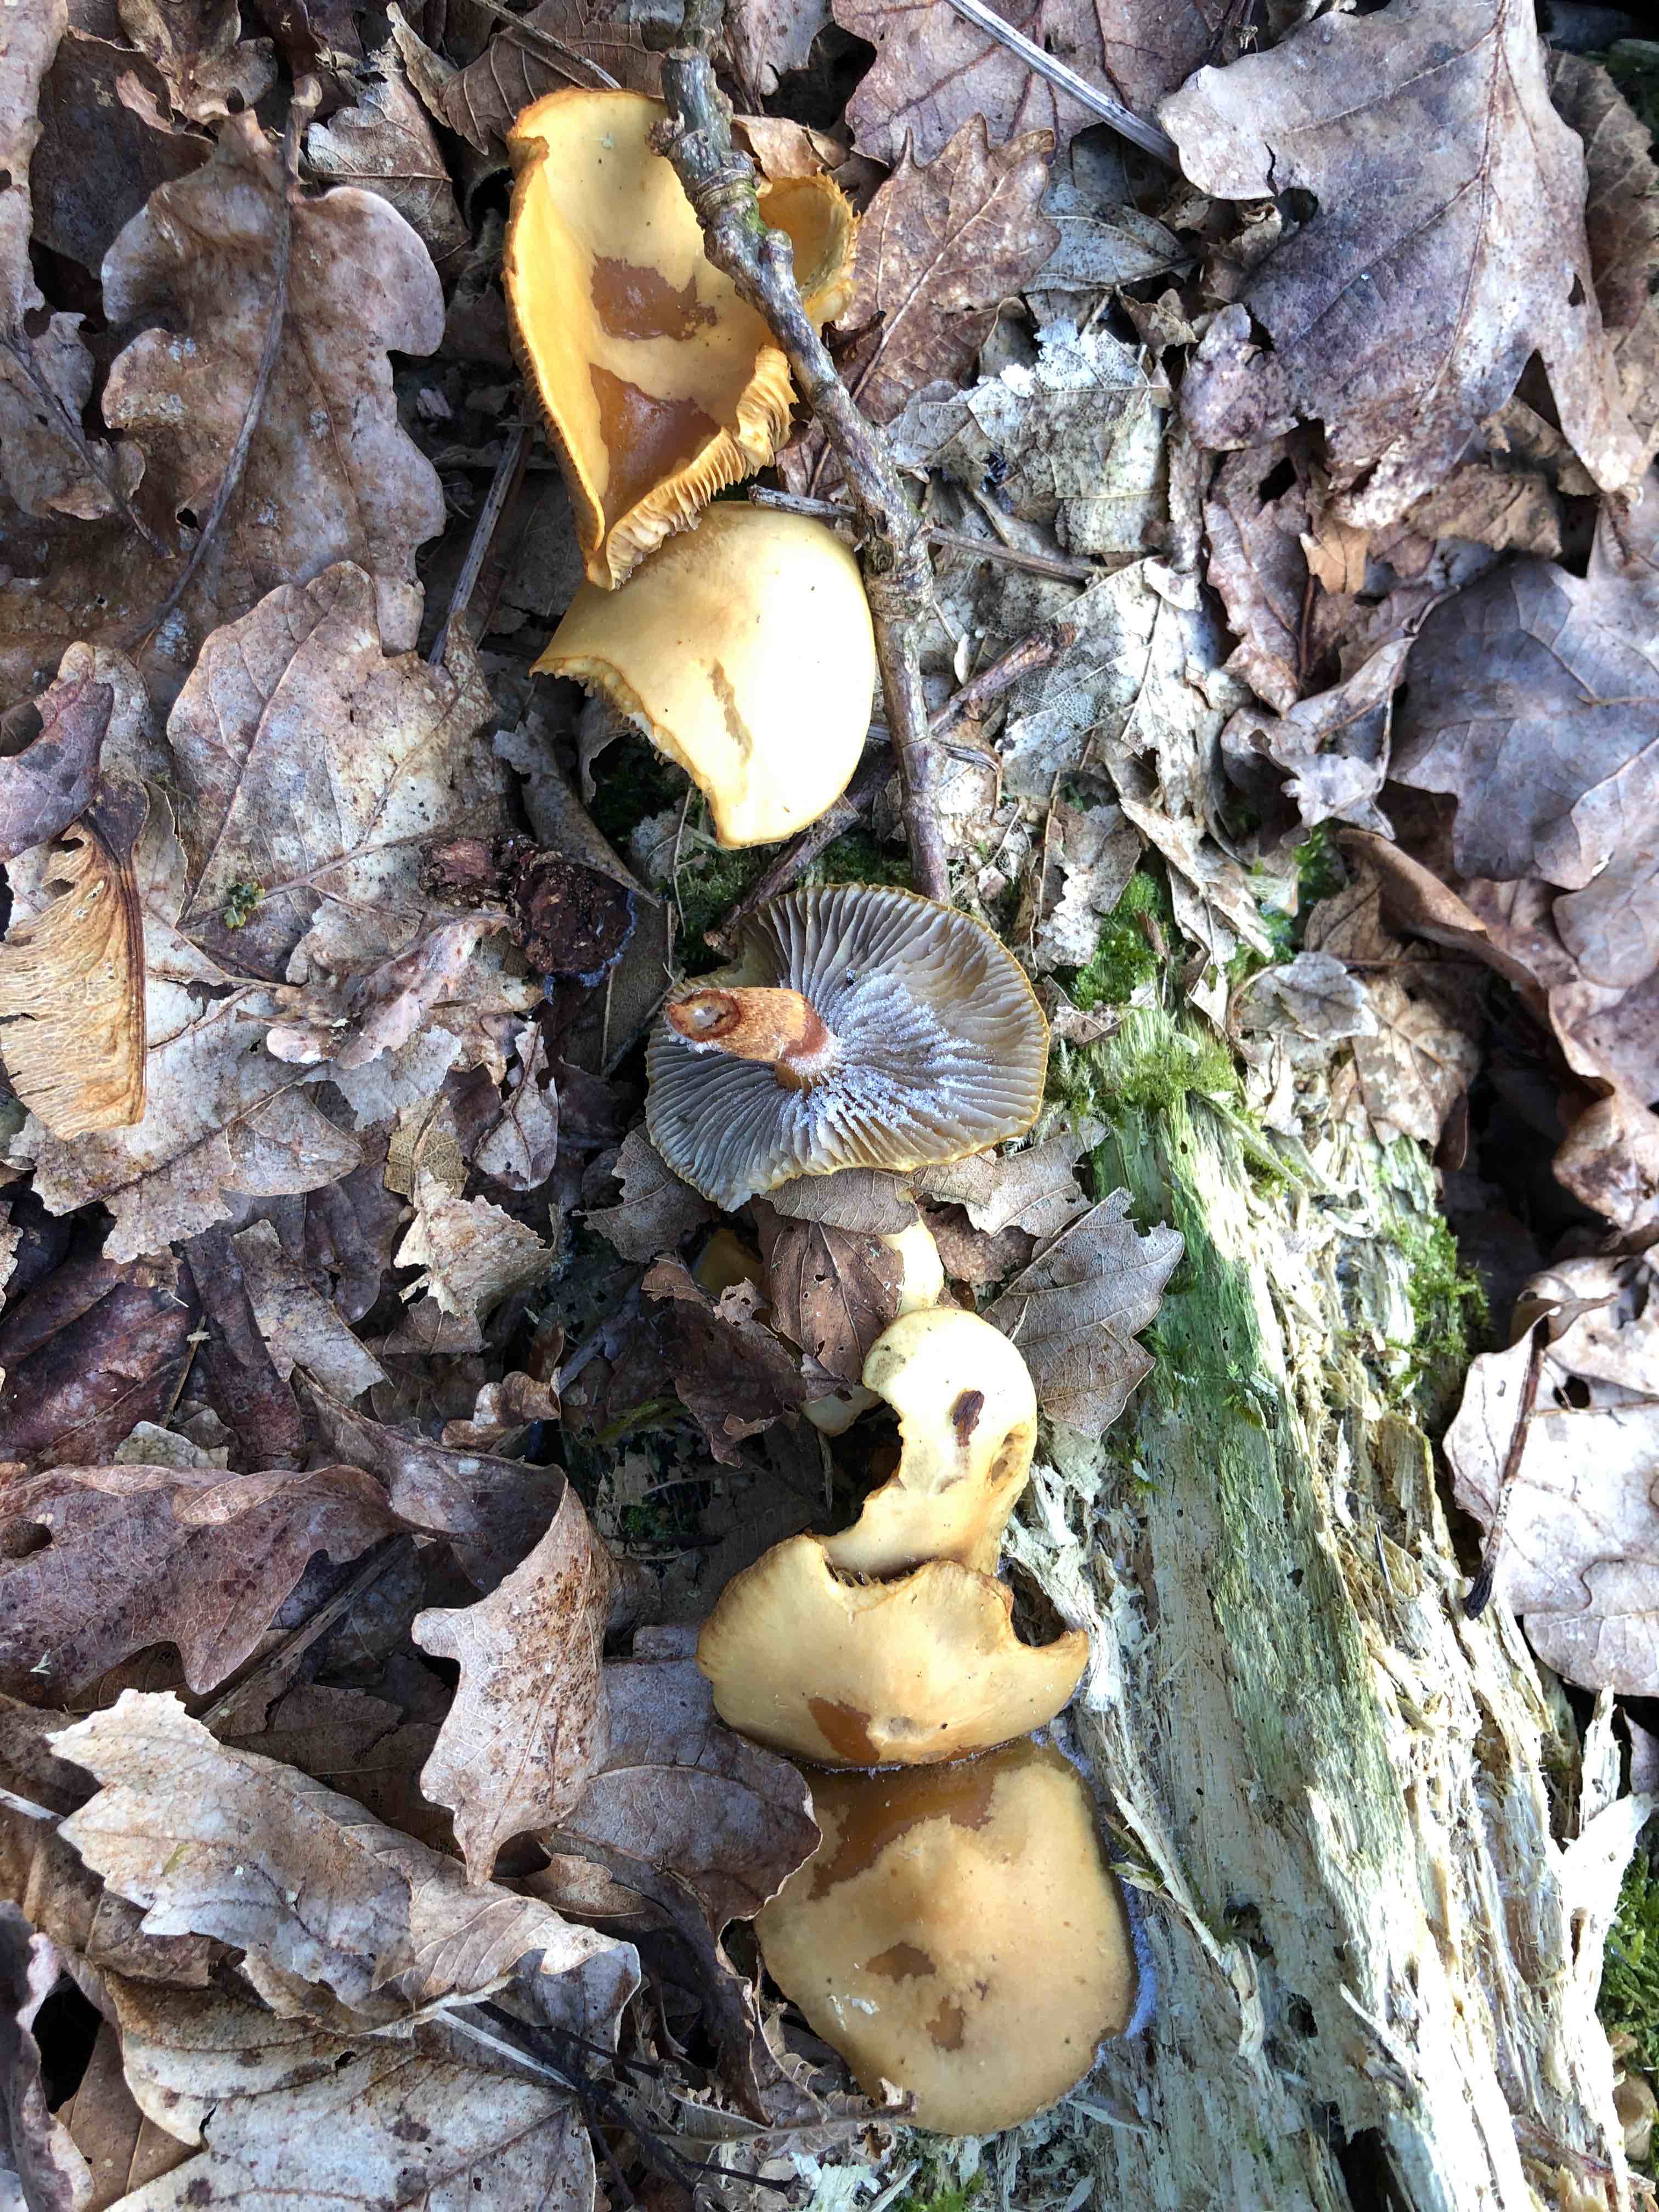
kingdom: Fungi
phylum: Basidiomycota
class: Agaricomycetes
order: Agaricales
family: Strophariaceae
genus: Hypholoma
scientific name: Hypholoma capnoides
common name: gran-svovlhat
